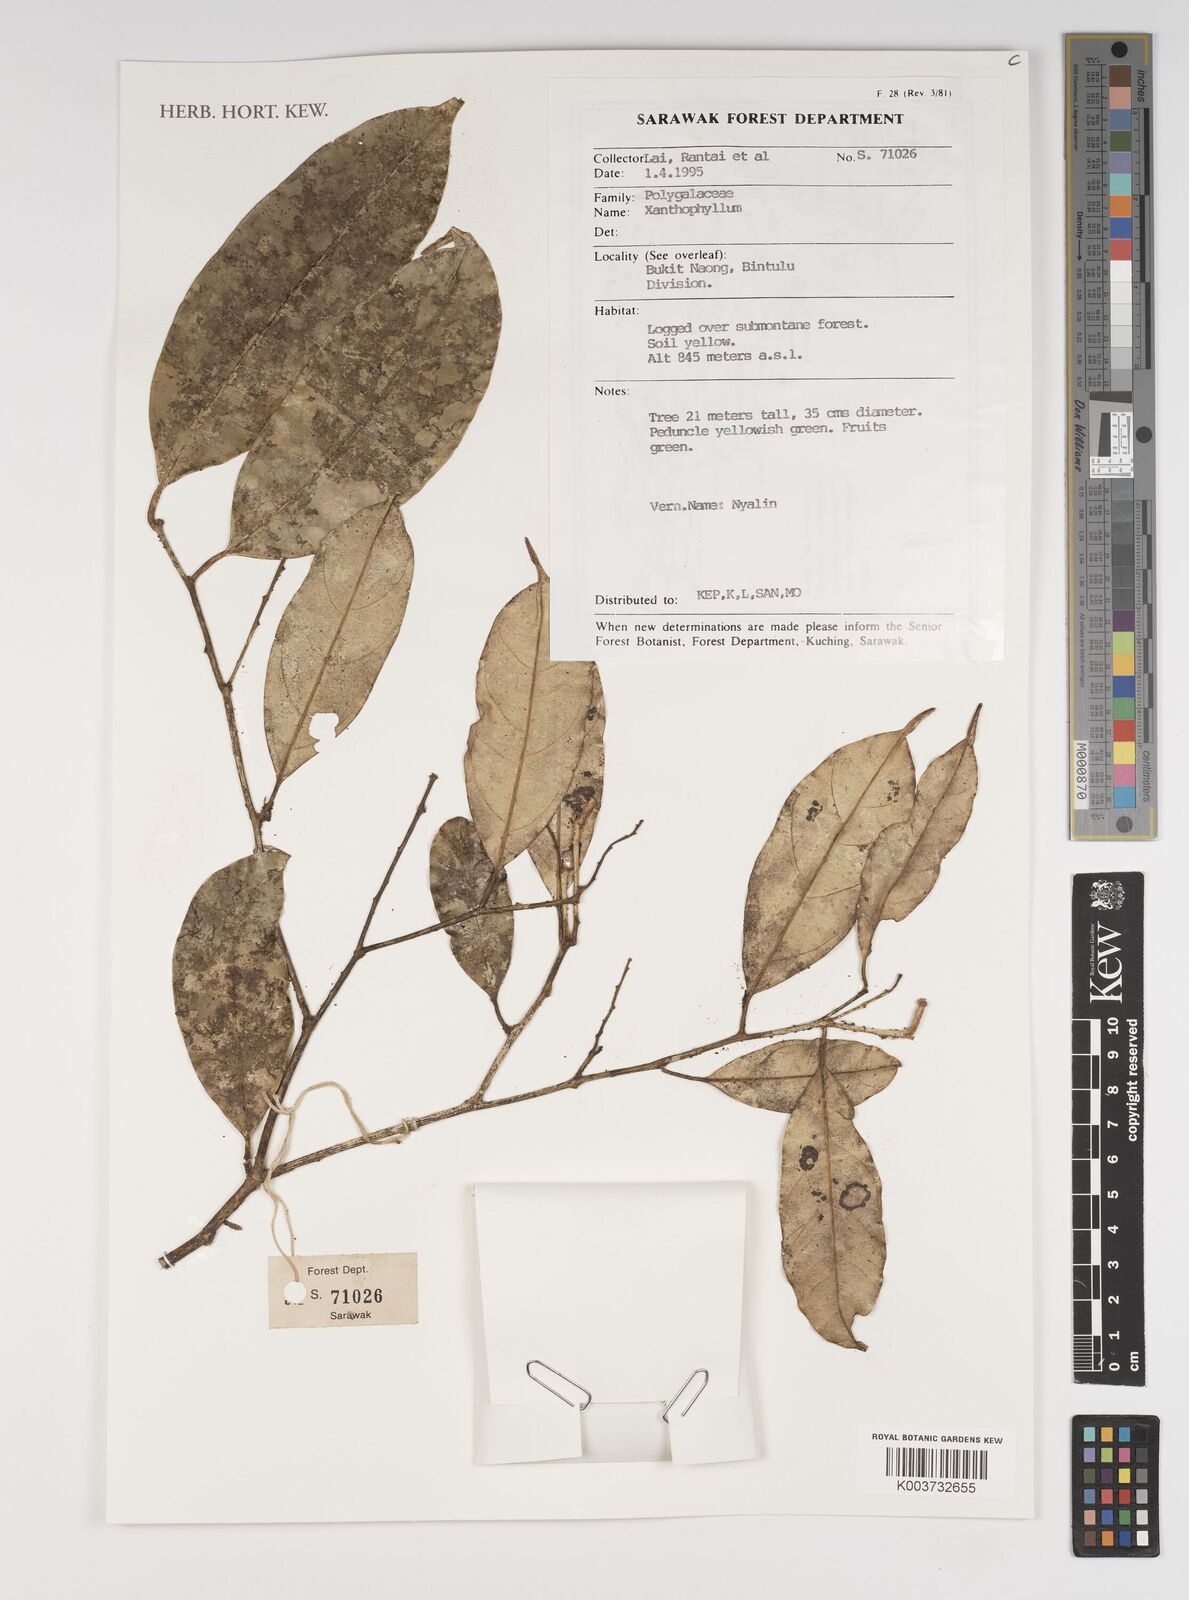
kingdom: Plantae
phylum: Tracheophyta
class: Magnoliopsida
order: Fabales
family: Polygalaceae
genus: Xanthophyllum
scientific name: Xanthophyllum
